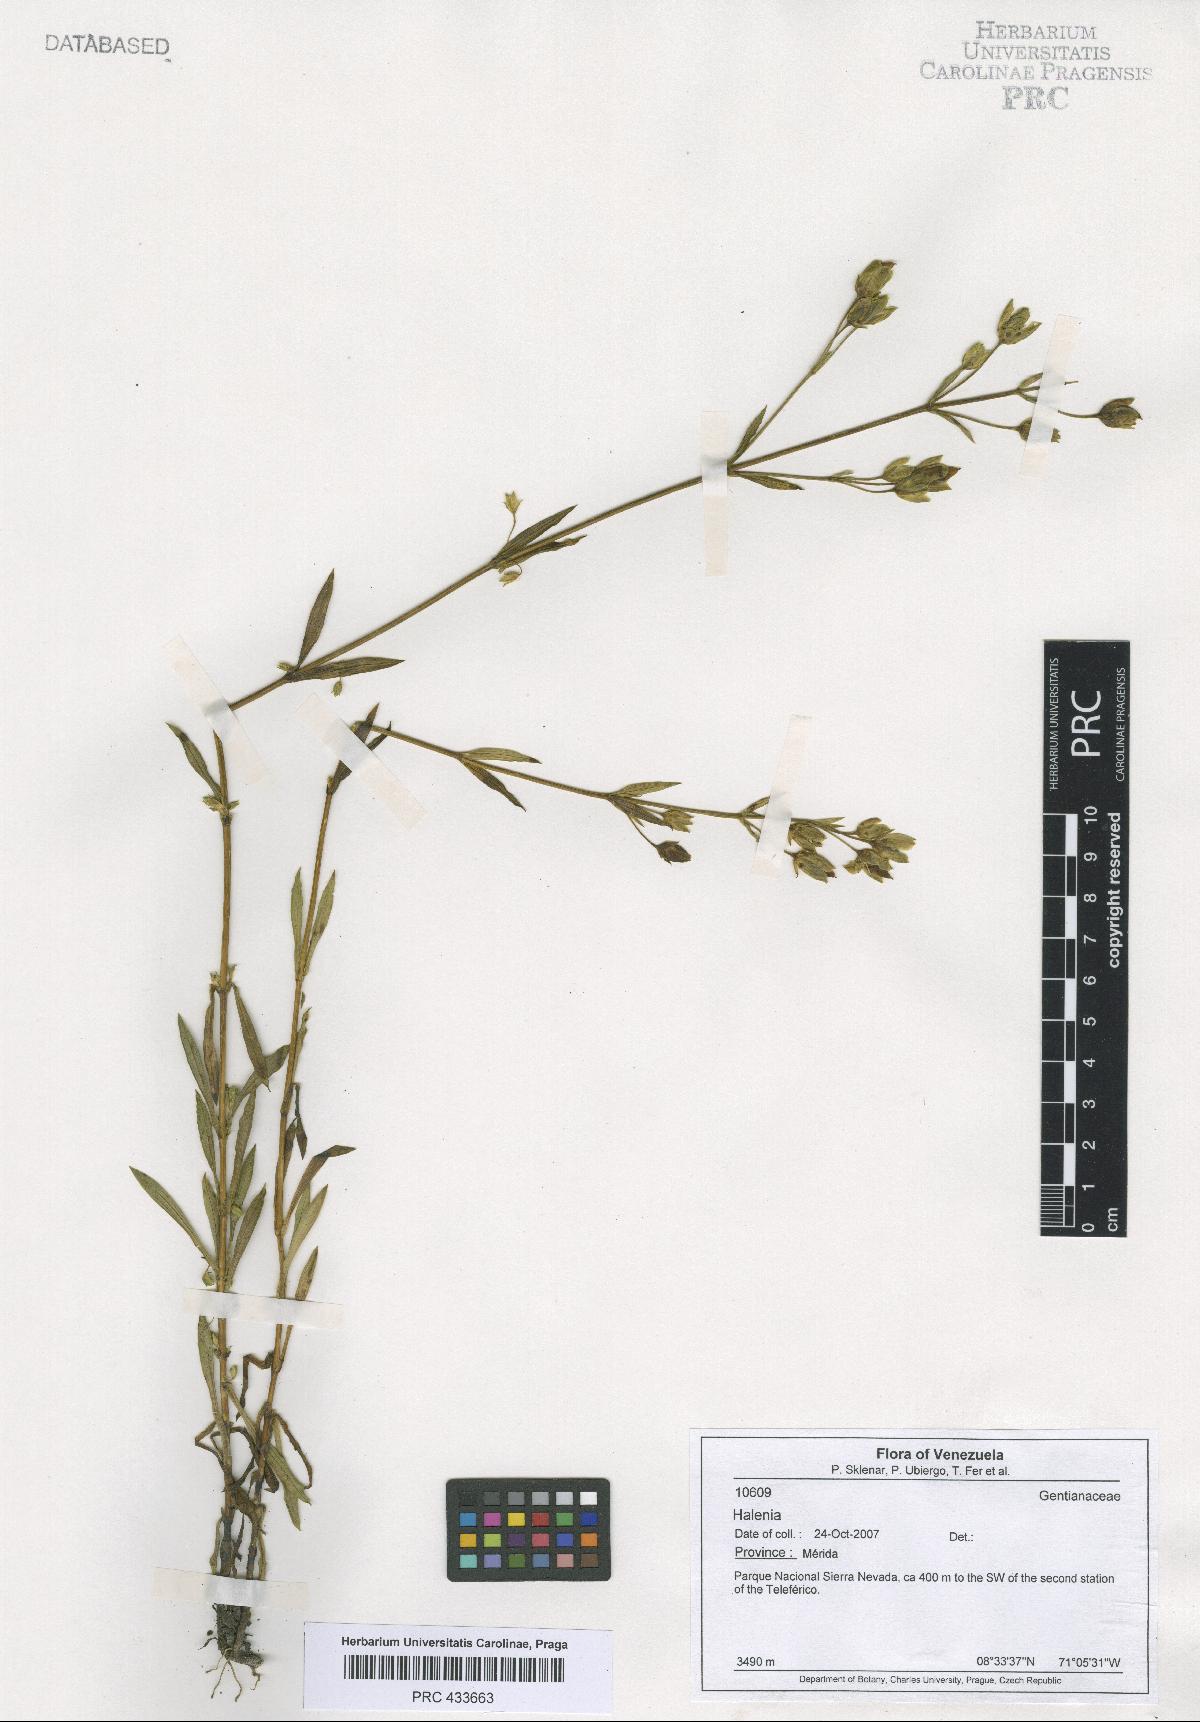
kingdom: Plantae
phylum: Tracheophyta
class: Magnoliopsida
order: Gentianales
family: Gentianaceae
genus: Halenia
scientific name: Halenia
